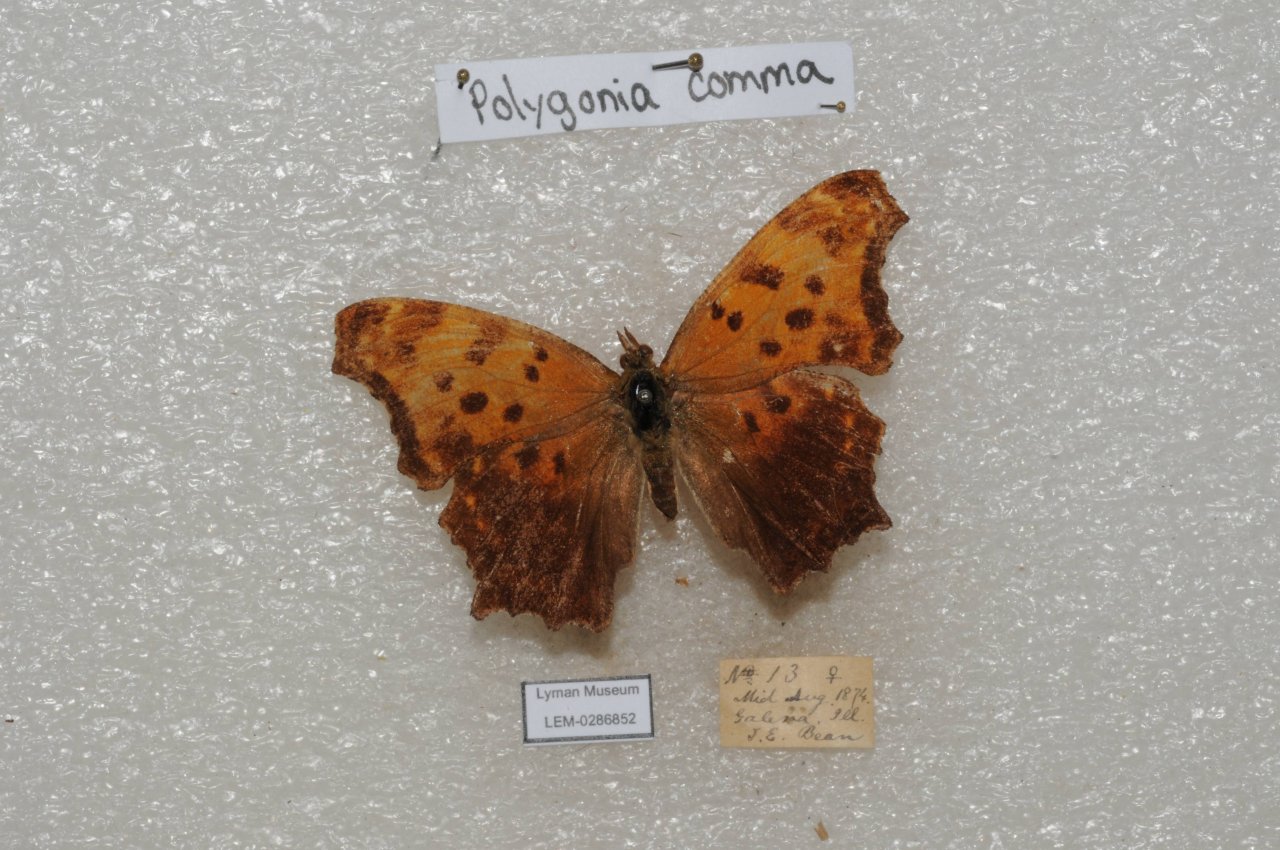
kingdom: Animalia
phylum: Arthropoda
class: Insecta
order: Lepidoptera
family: Nymphalidae
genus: Polygonia
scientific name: Polygonia comma
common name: Eastern Comma
